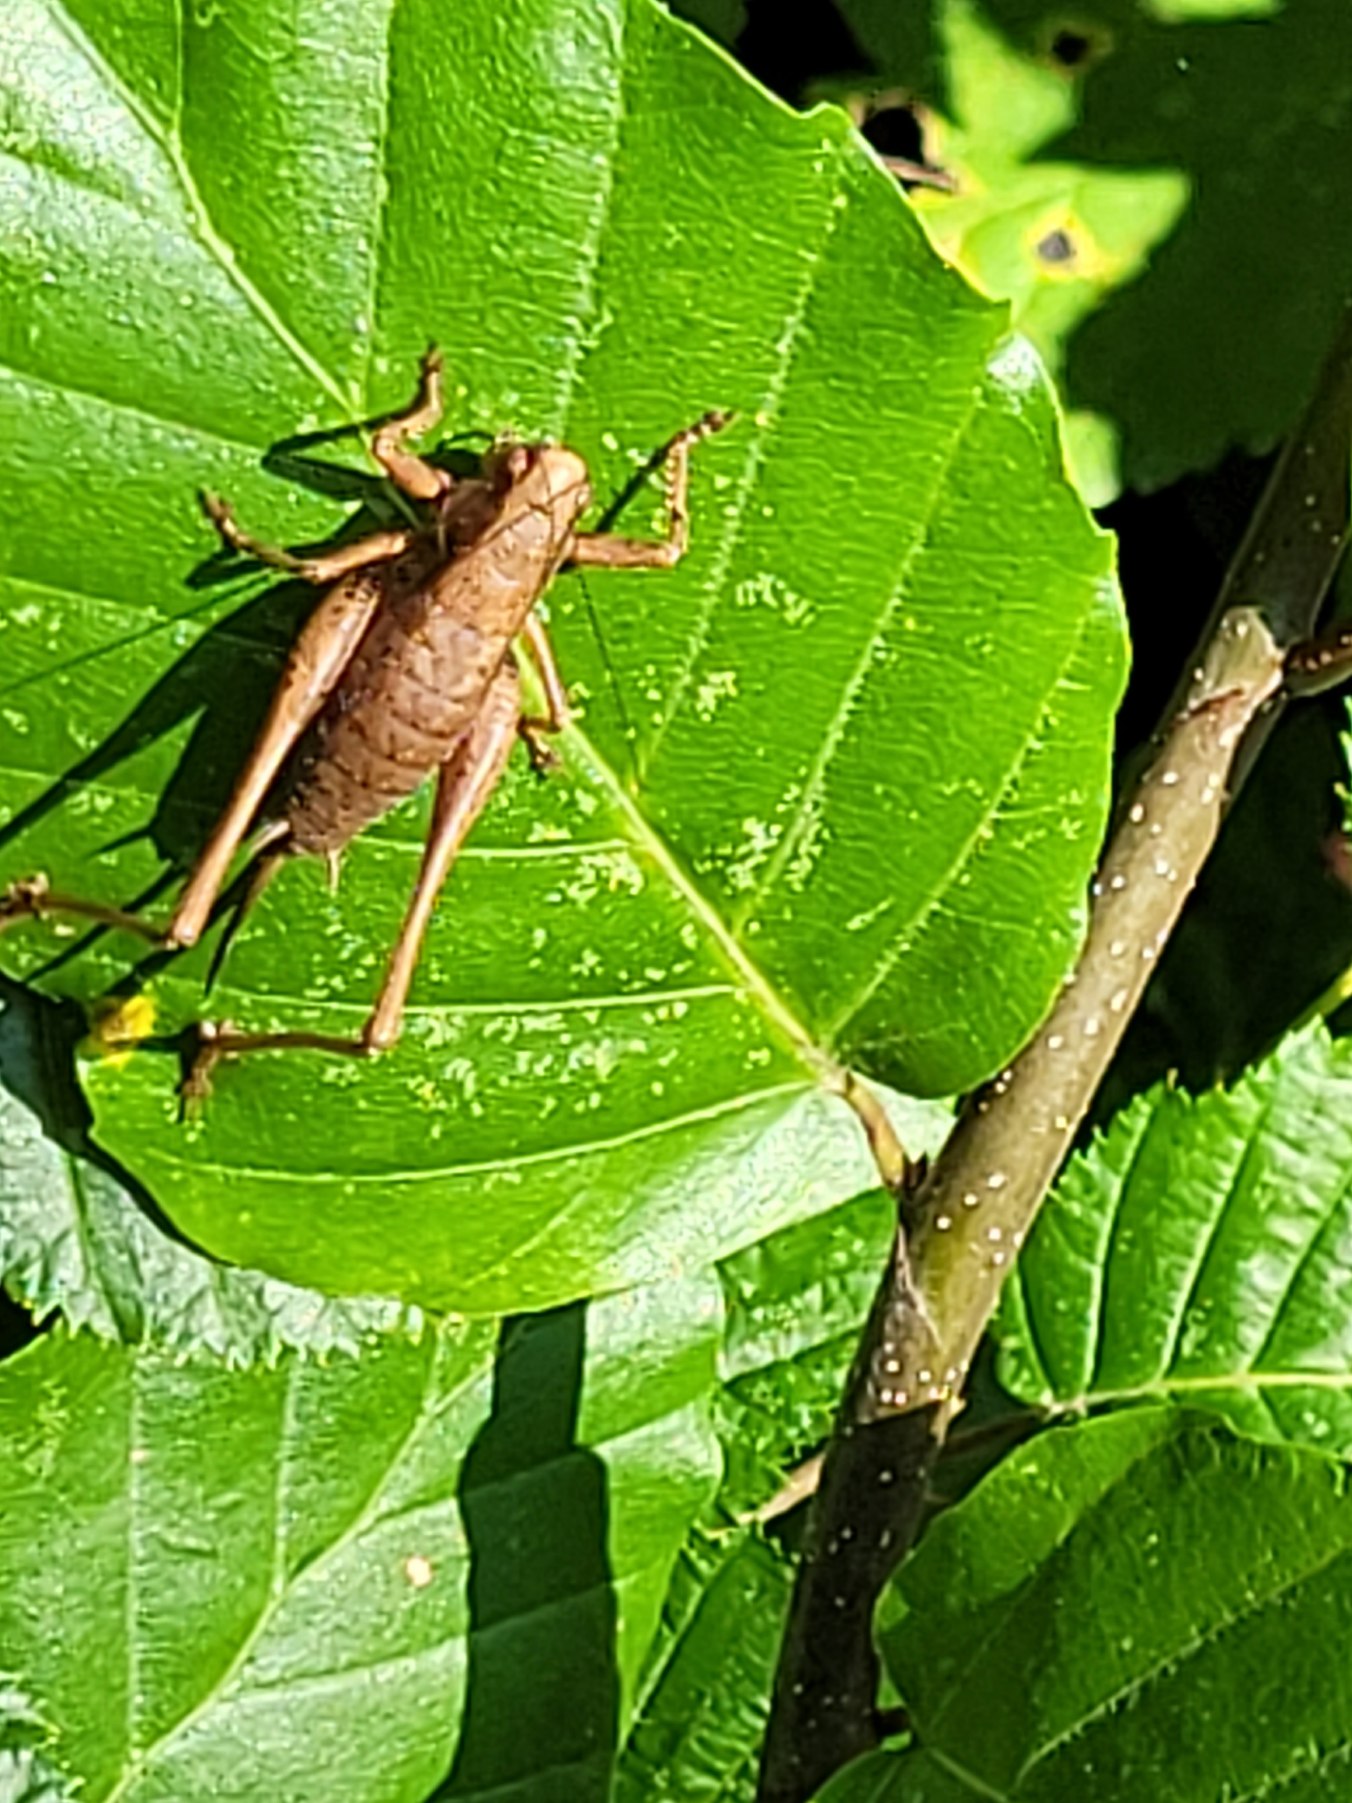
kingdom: Animalia
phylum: Arthropoda
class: Insecta
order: Orthoptera
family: Tettigoniidae
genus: Pholidoptera
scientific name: Pholidoptera griseoaptera
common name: Buskgræshoppe
